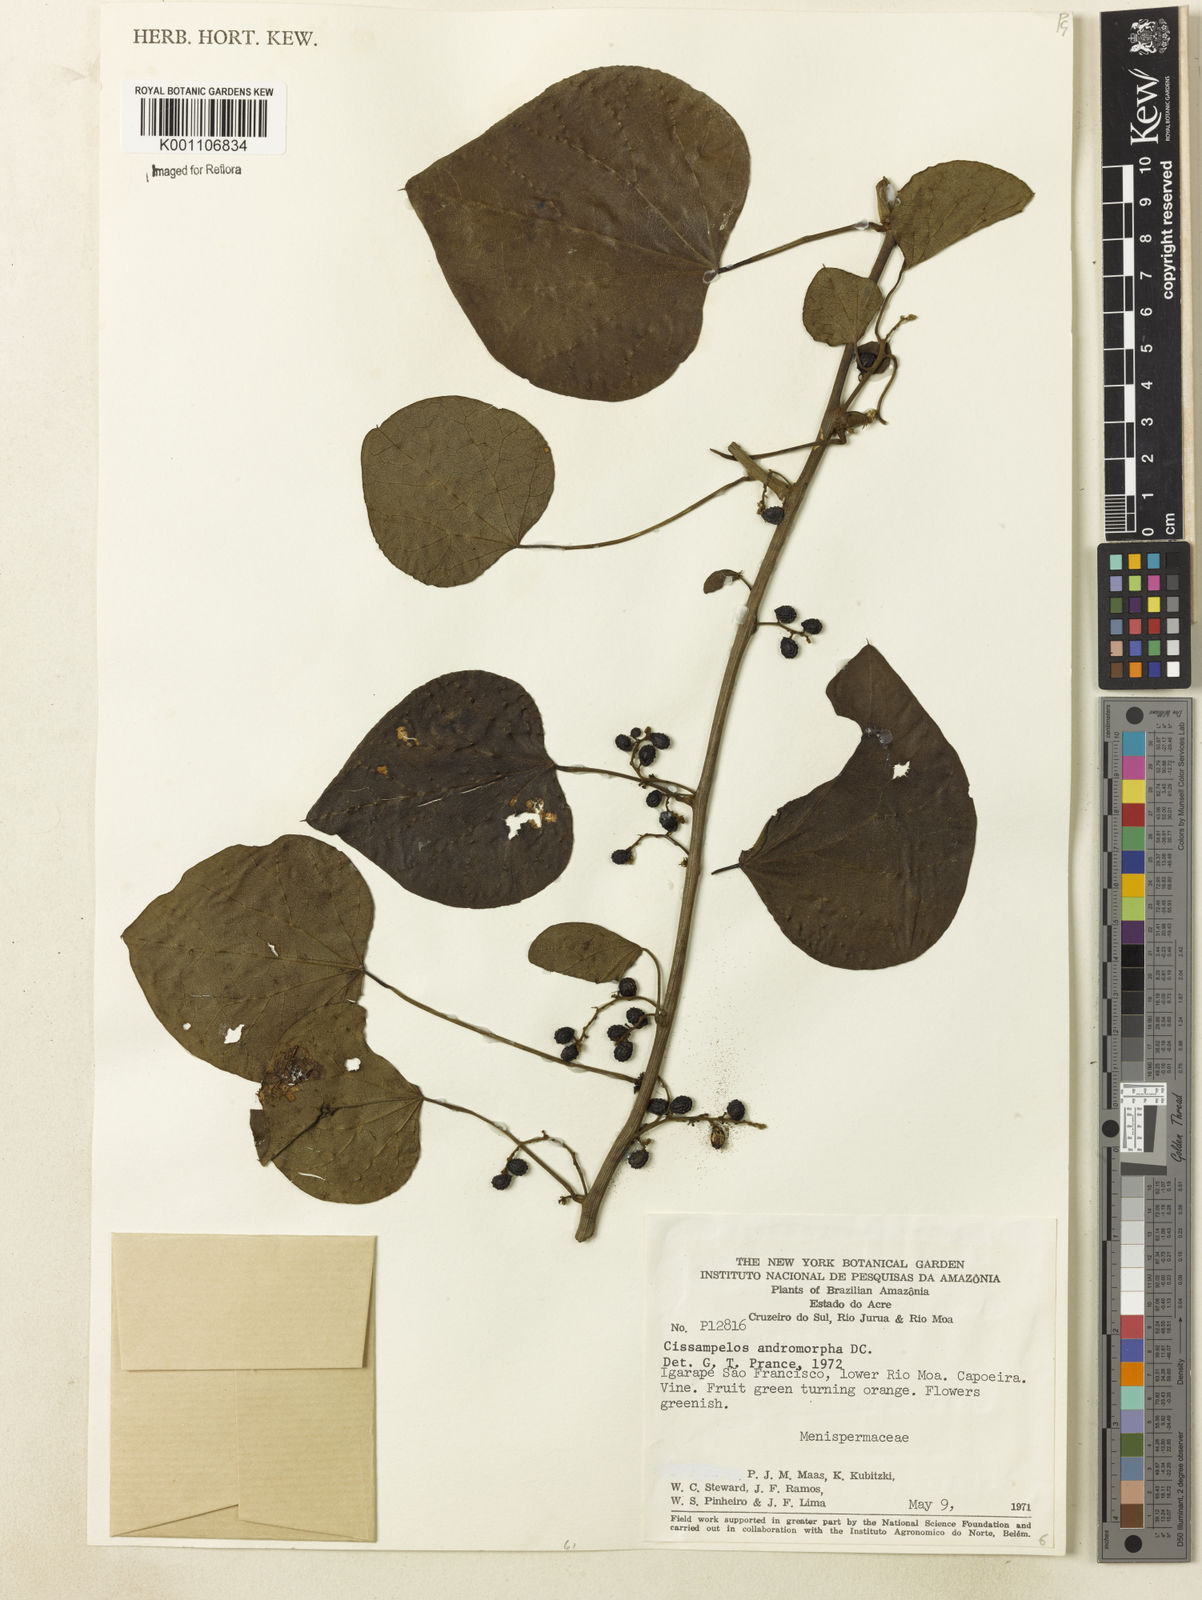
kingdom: Plantae
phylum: Tracheophyta
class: Magnoliopsida
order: Ranunculales
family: Menispermaceae
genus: Cissampelos
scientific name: Cissampelos andromorpha
